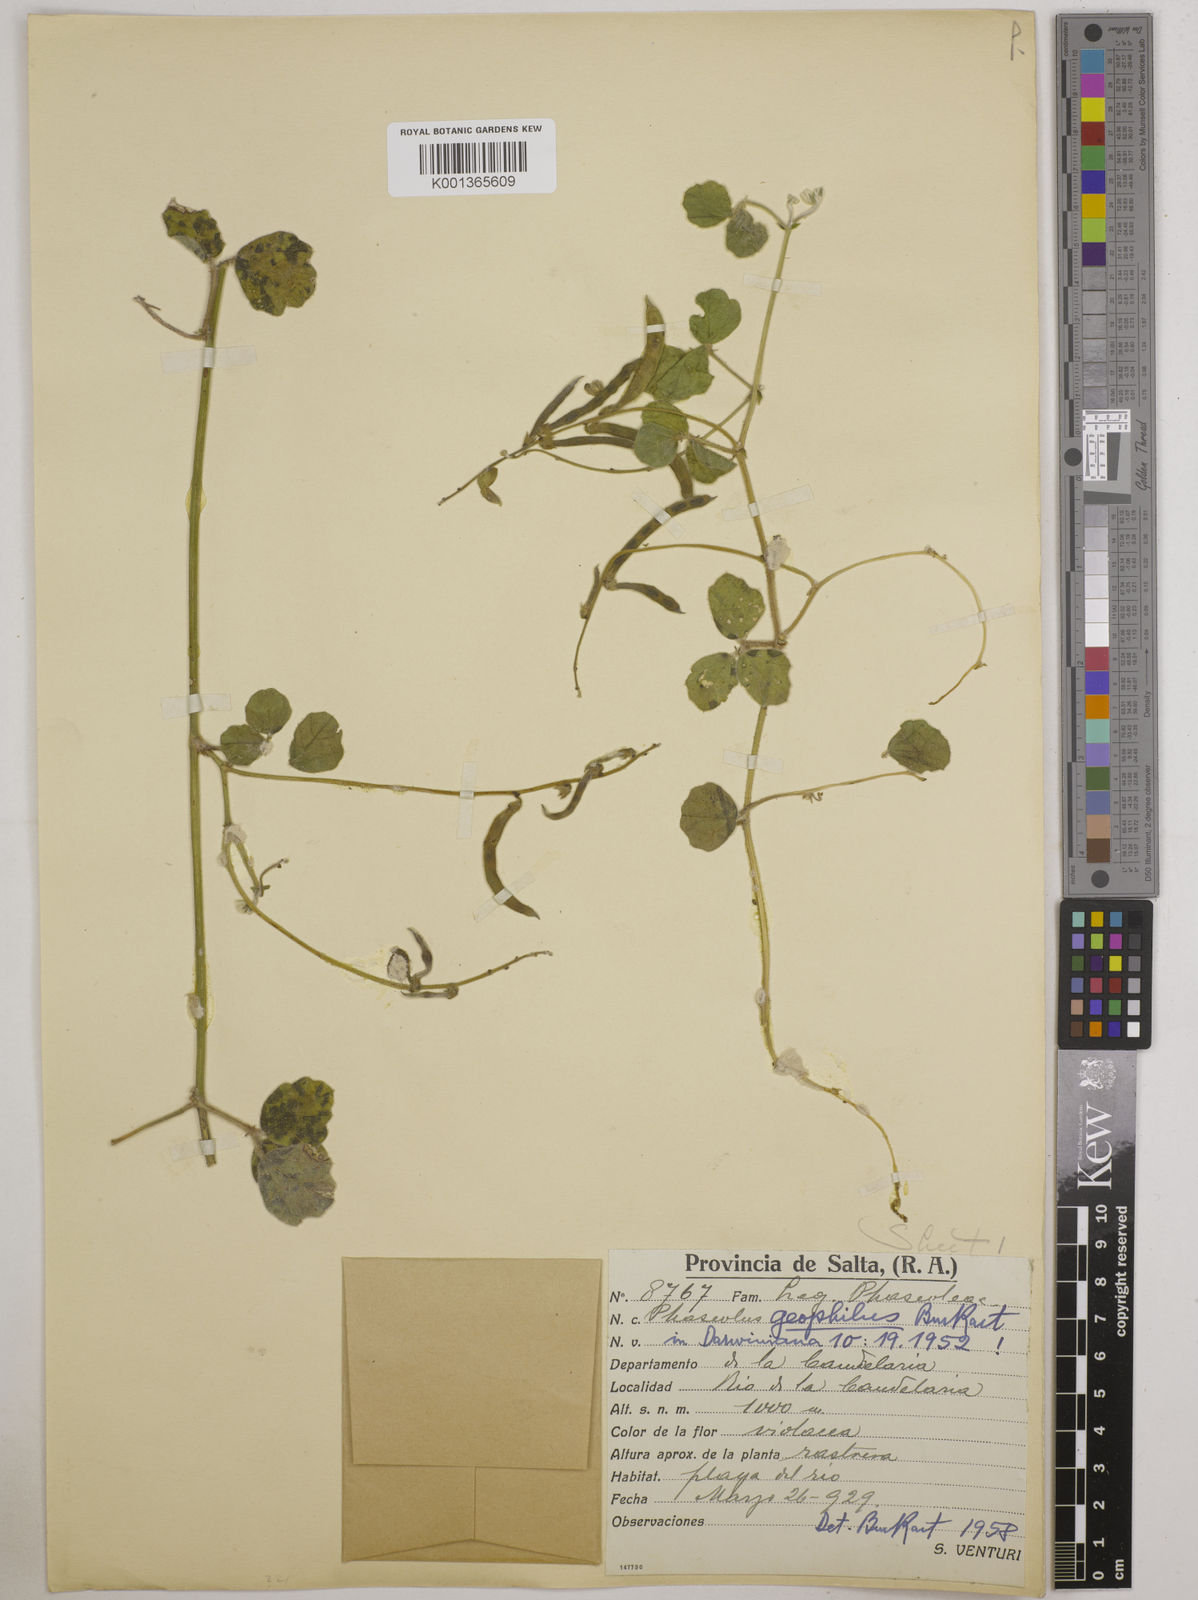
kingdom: Plantae
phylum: Tracheophyta
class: Magnoliopsida
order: Fabales
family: Fabaceae
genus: Macroptilium
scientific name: Macroptilium panduratum
